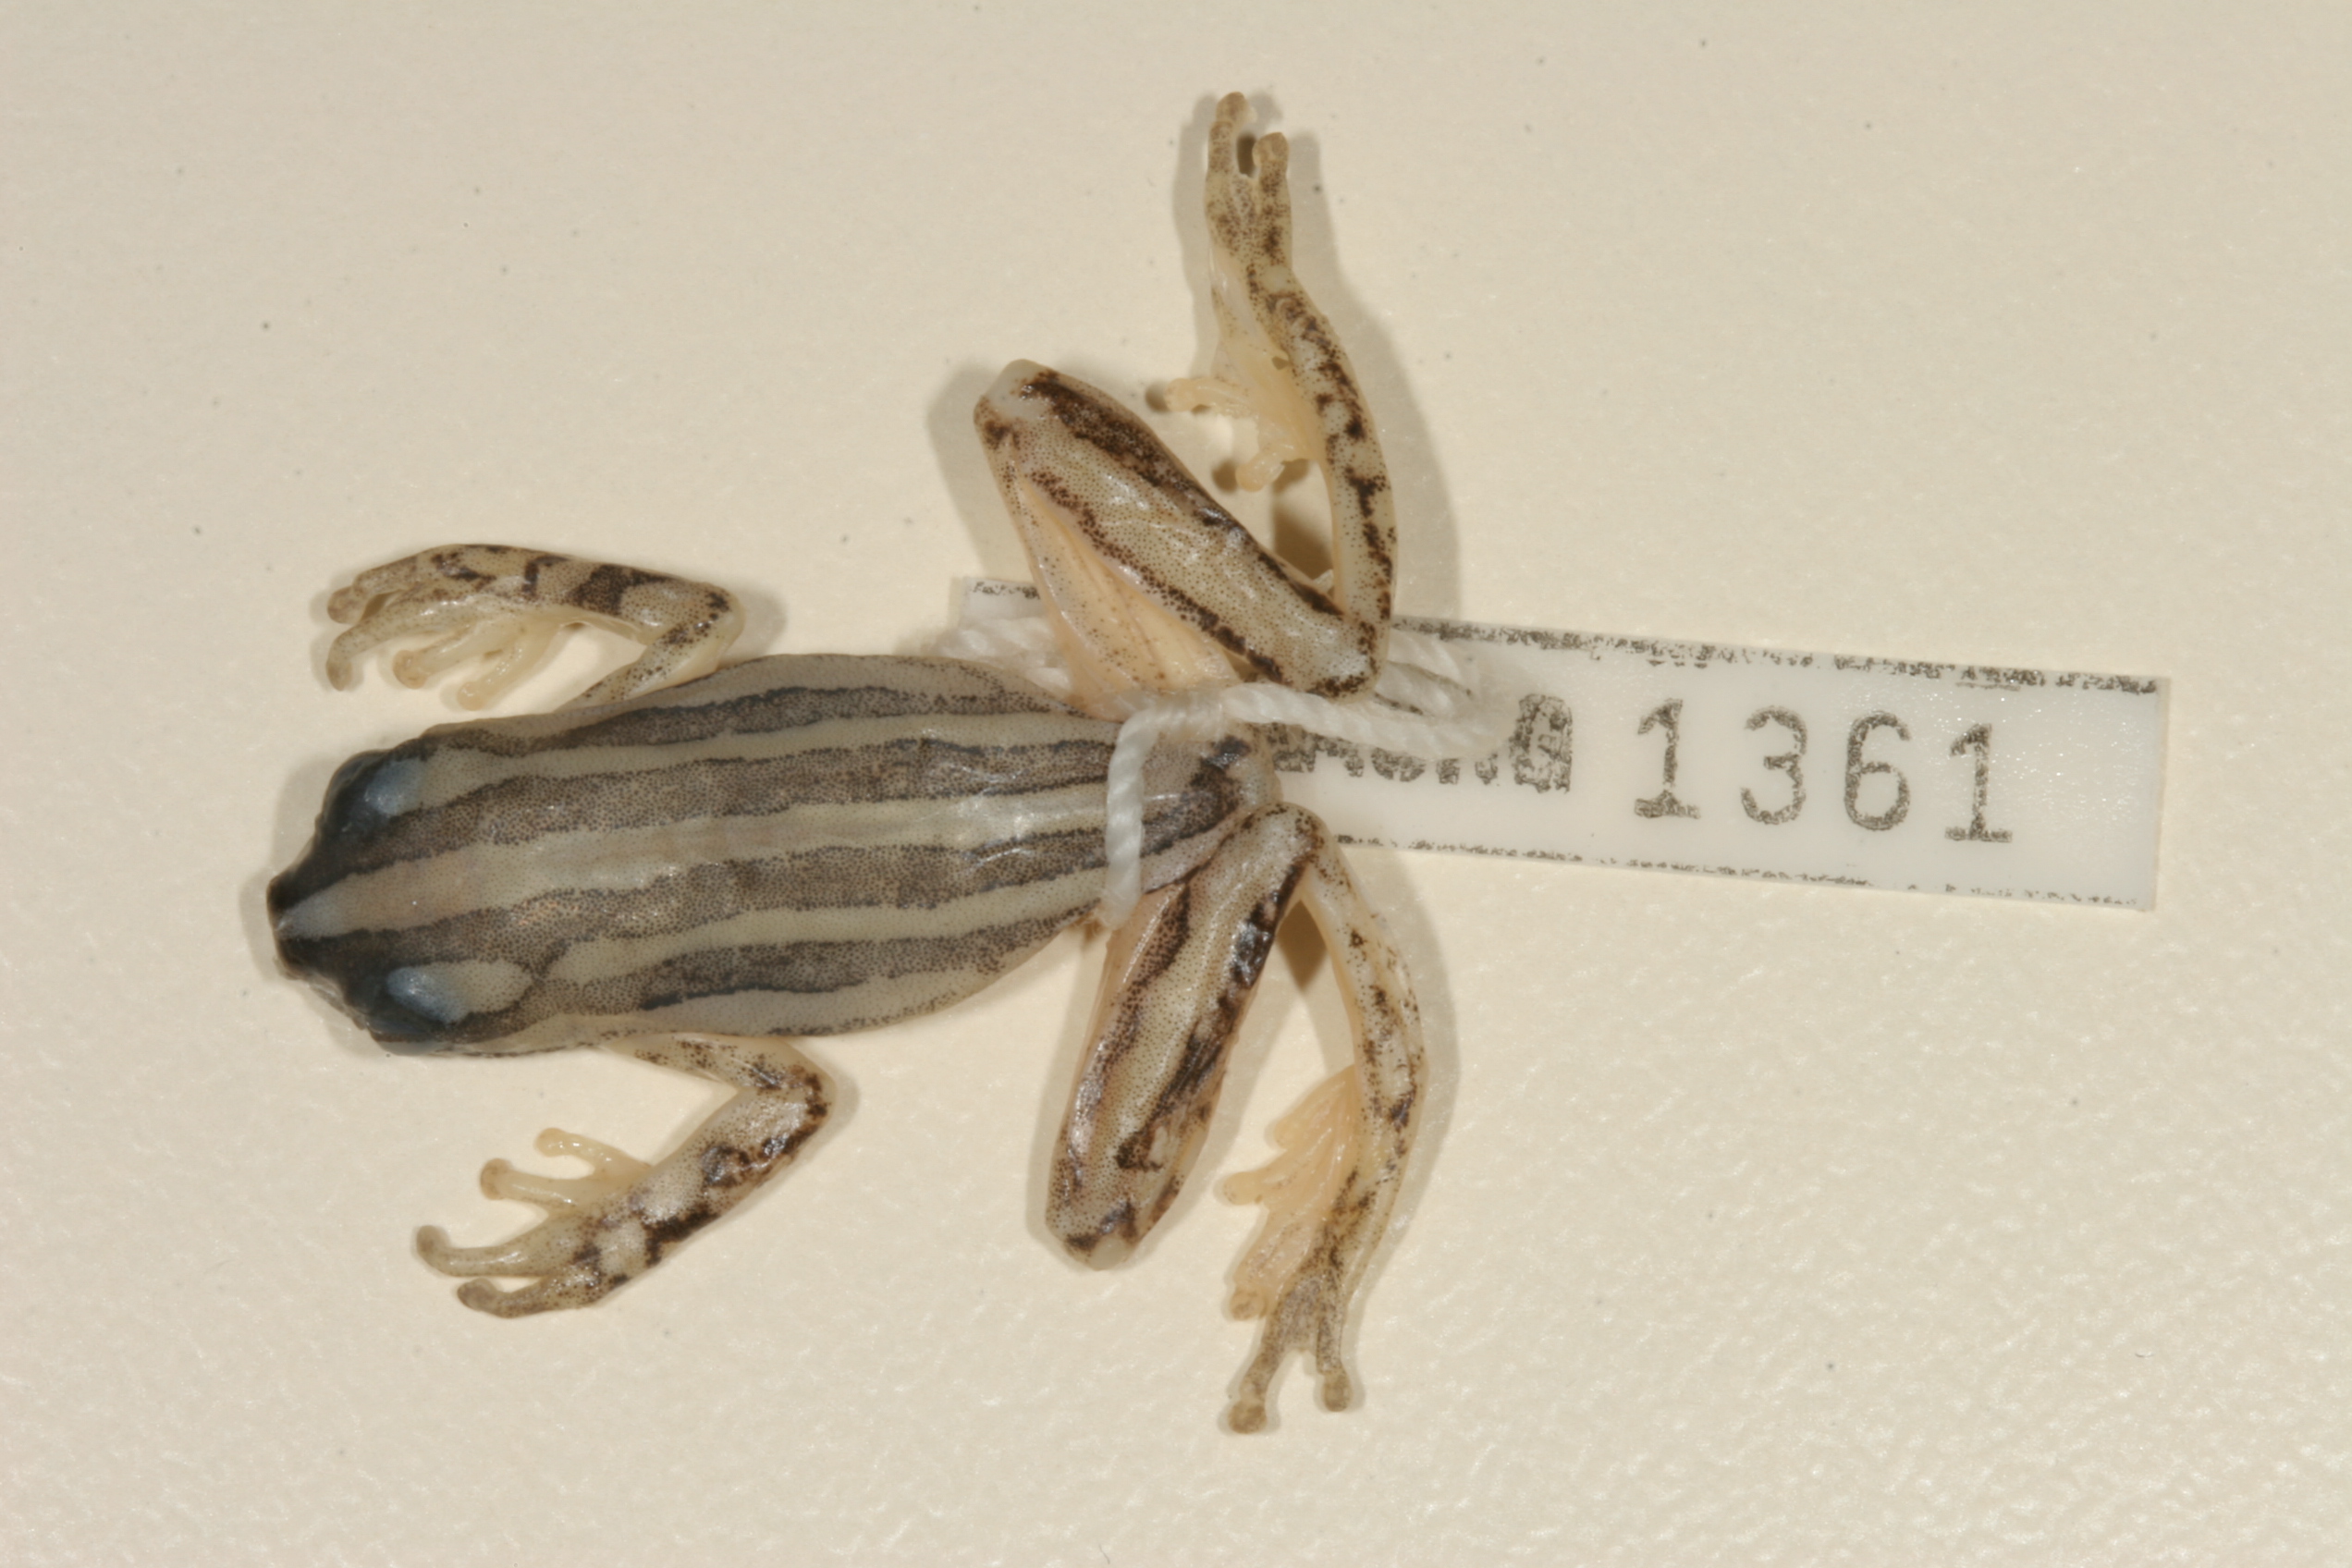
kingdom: Animalia
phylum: Chordata
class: Amphibia
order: Anura
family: Hyperoliidae
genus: Hyperolius
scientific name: Hyperolius marmoratus
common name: Painted reed frog
